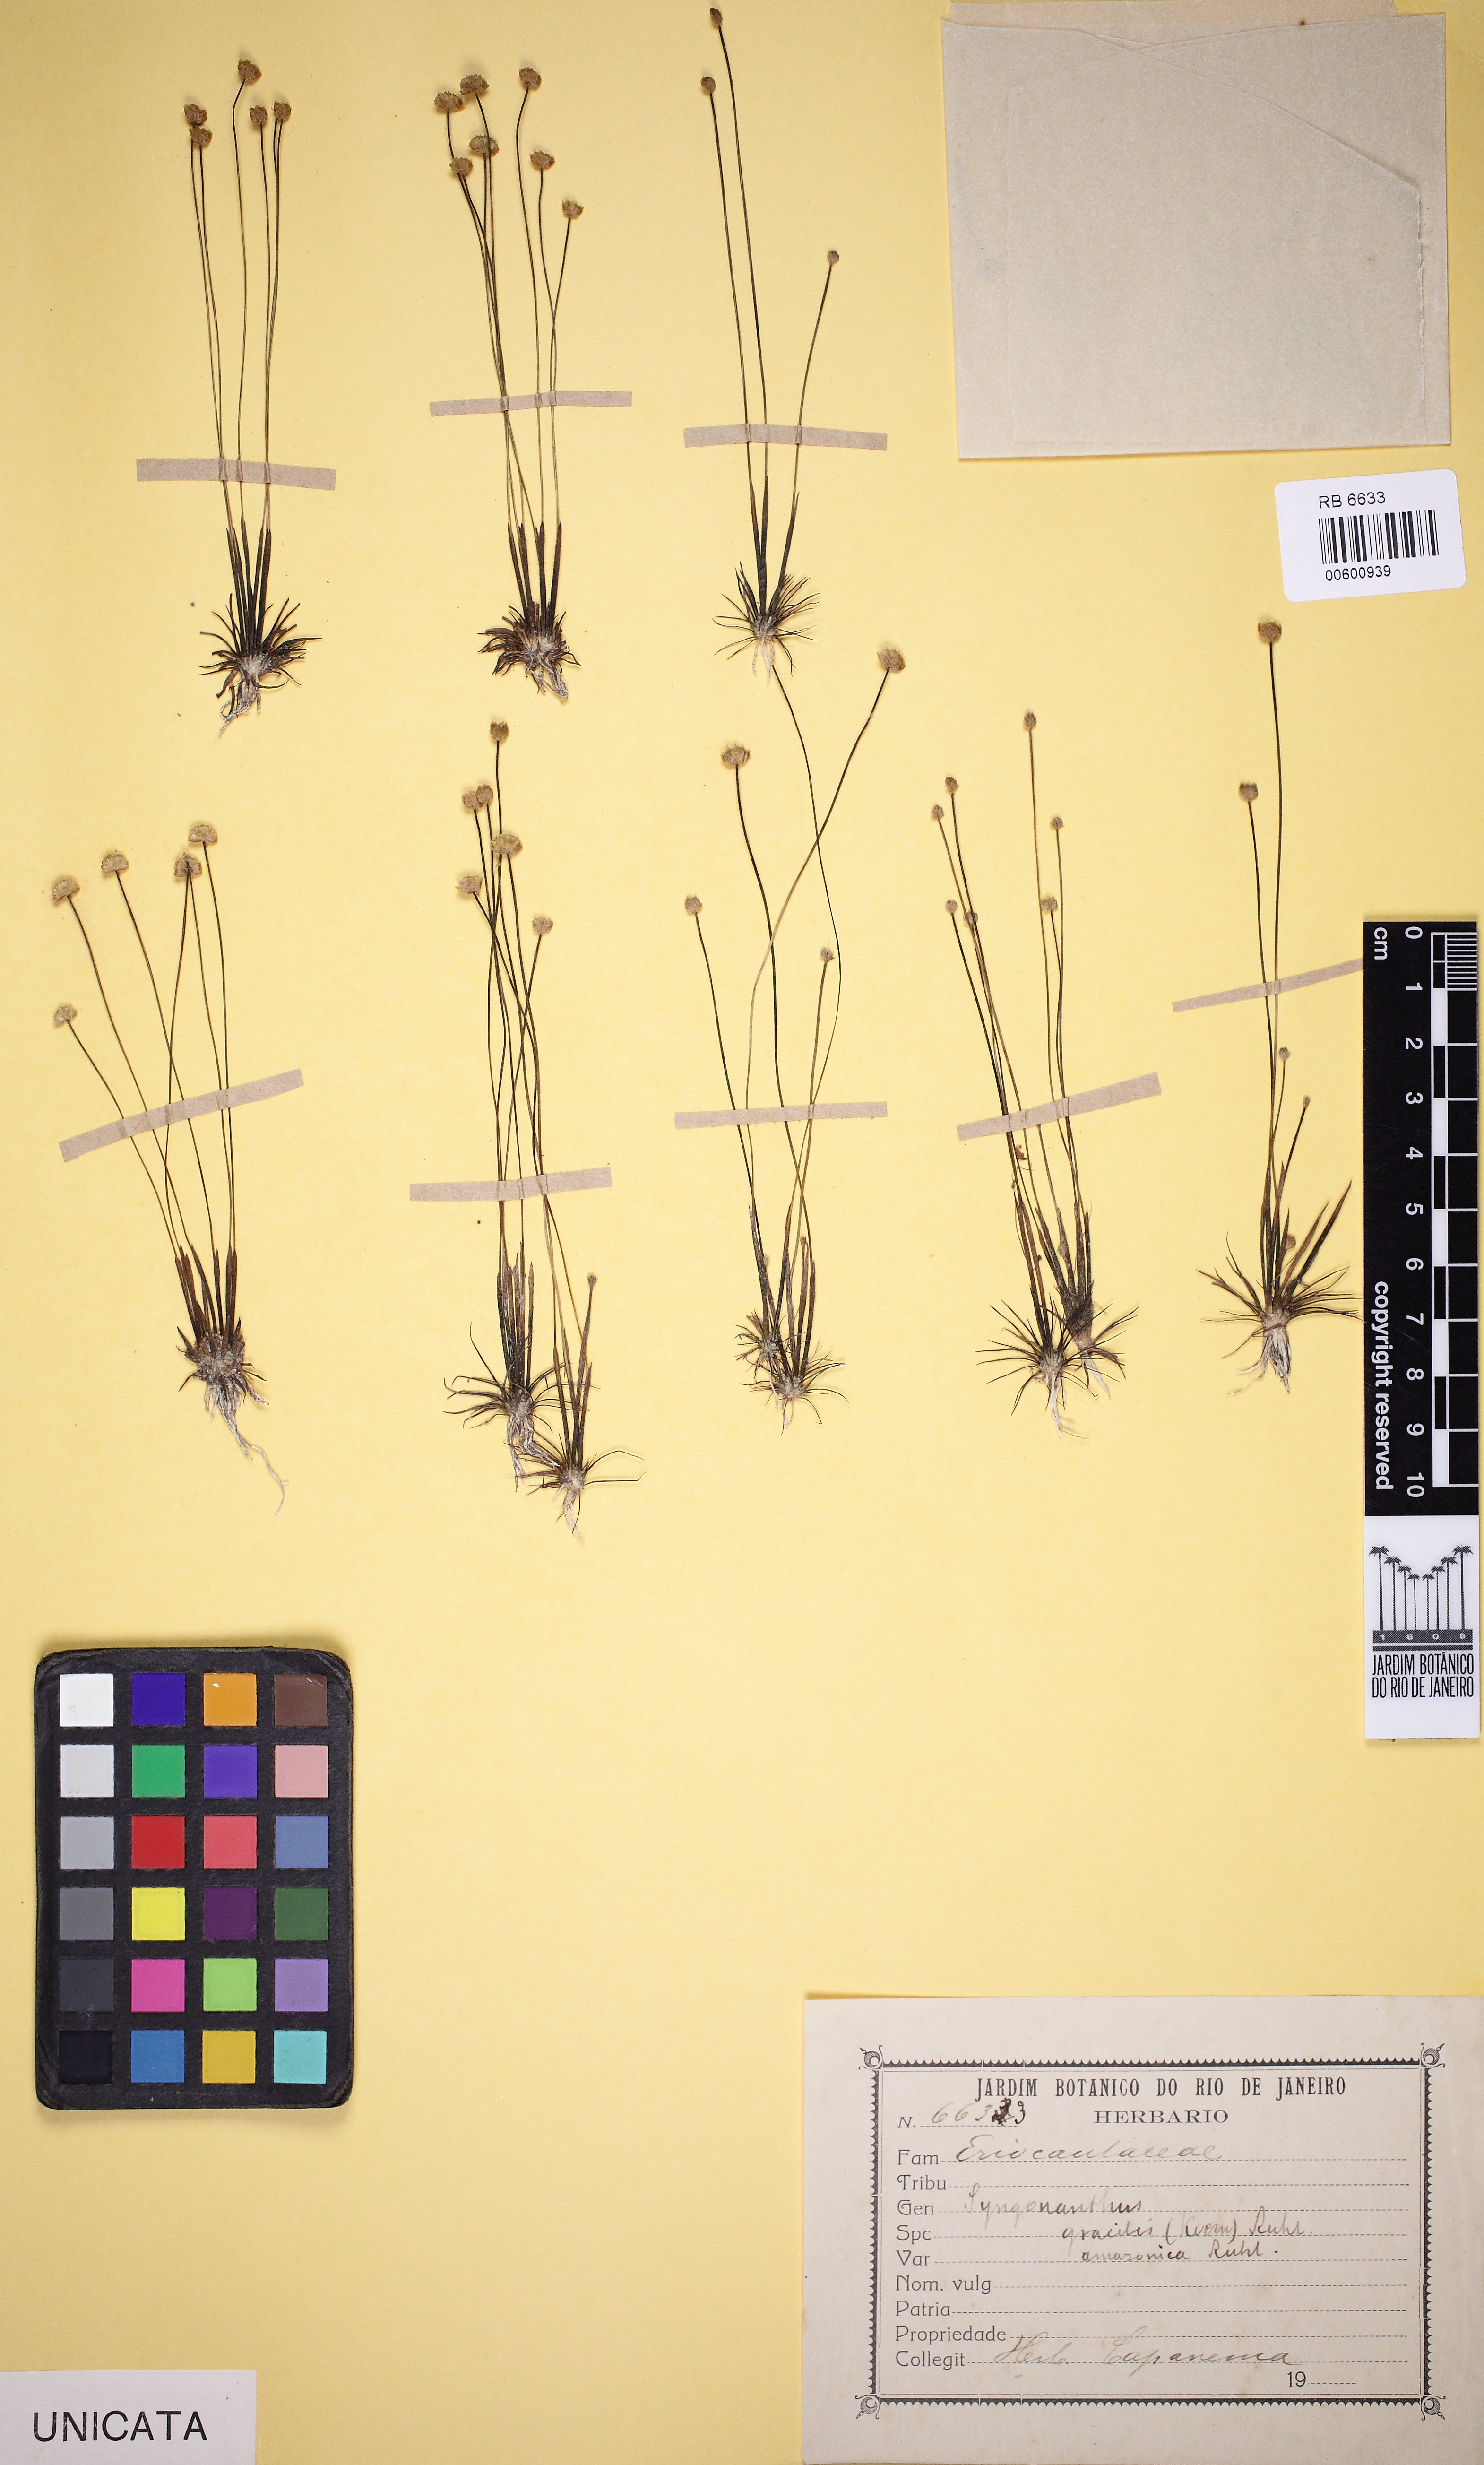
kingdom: Plantae
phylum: Tracheophyta
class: Liliopsida
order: Poales
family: Eriocaulaceae
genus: Syngonanthus
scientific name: Syngonanthus davidsei
